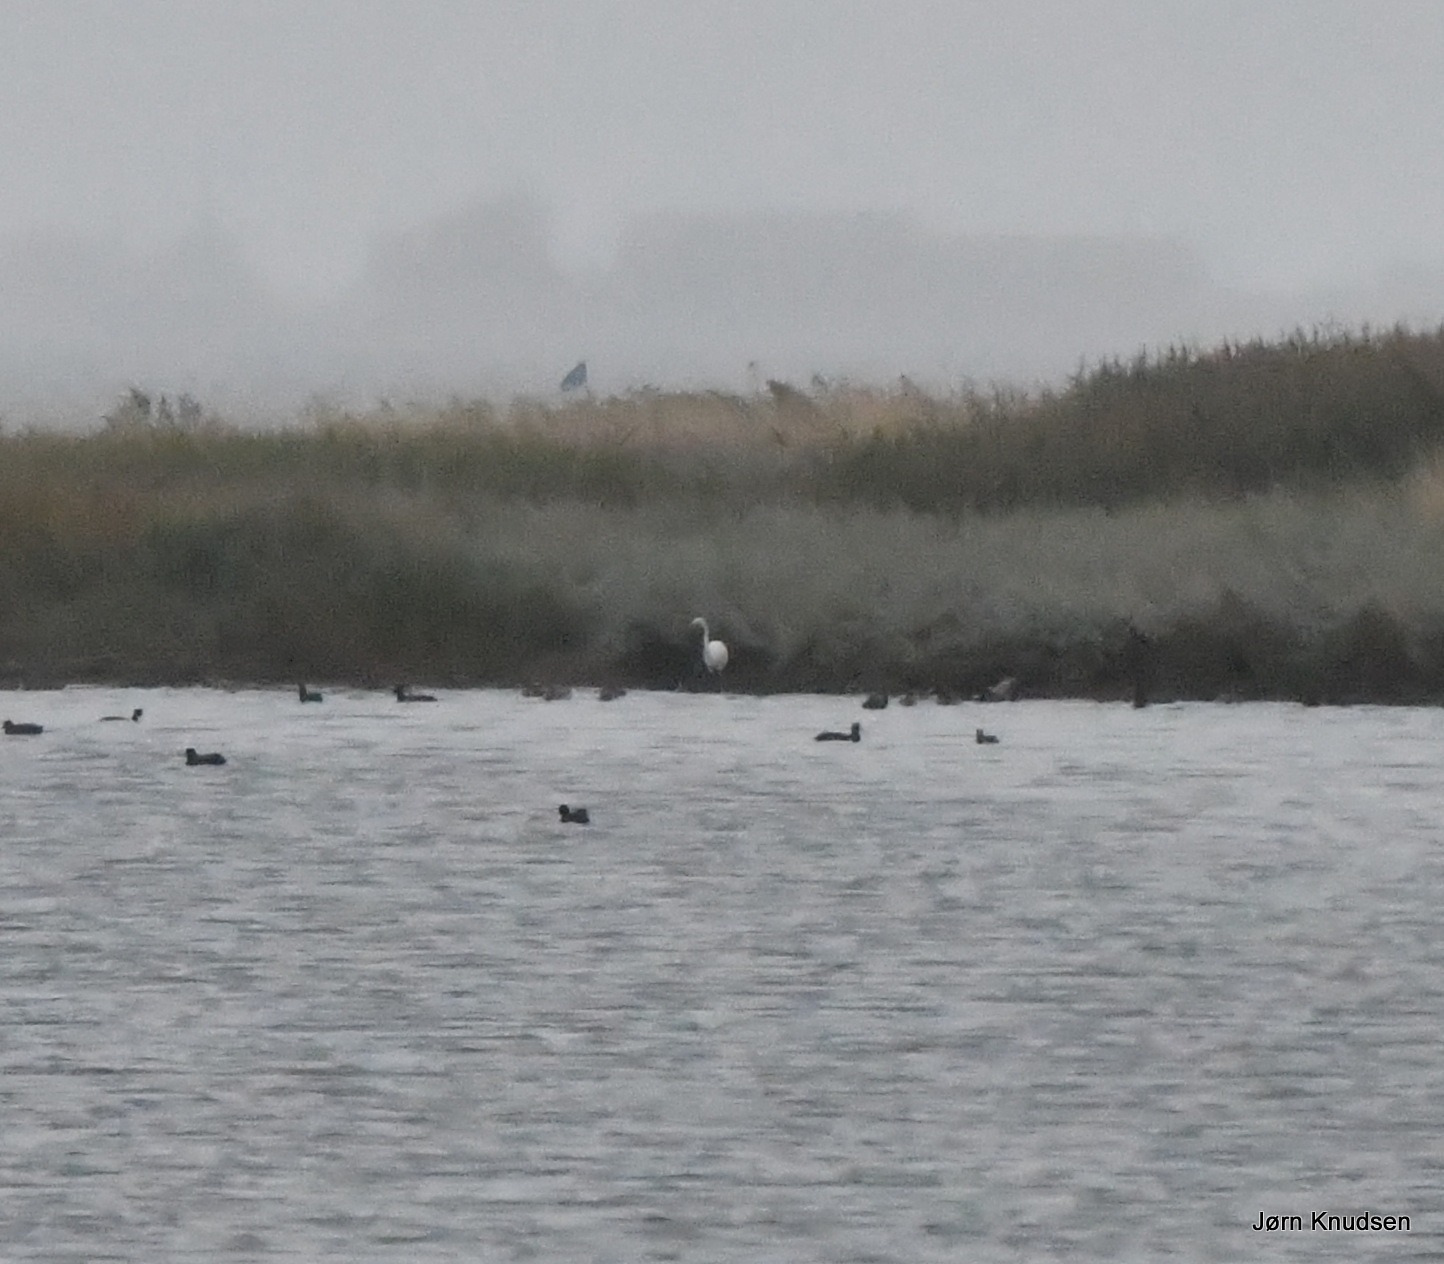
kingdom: Animalia
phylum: Chordata
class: Aves
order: Pelecaniformes
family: Ardeidae
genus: Ardea
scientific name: Ardea alba
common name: Sølvhejre
